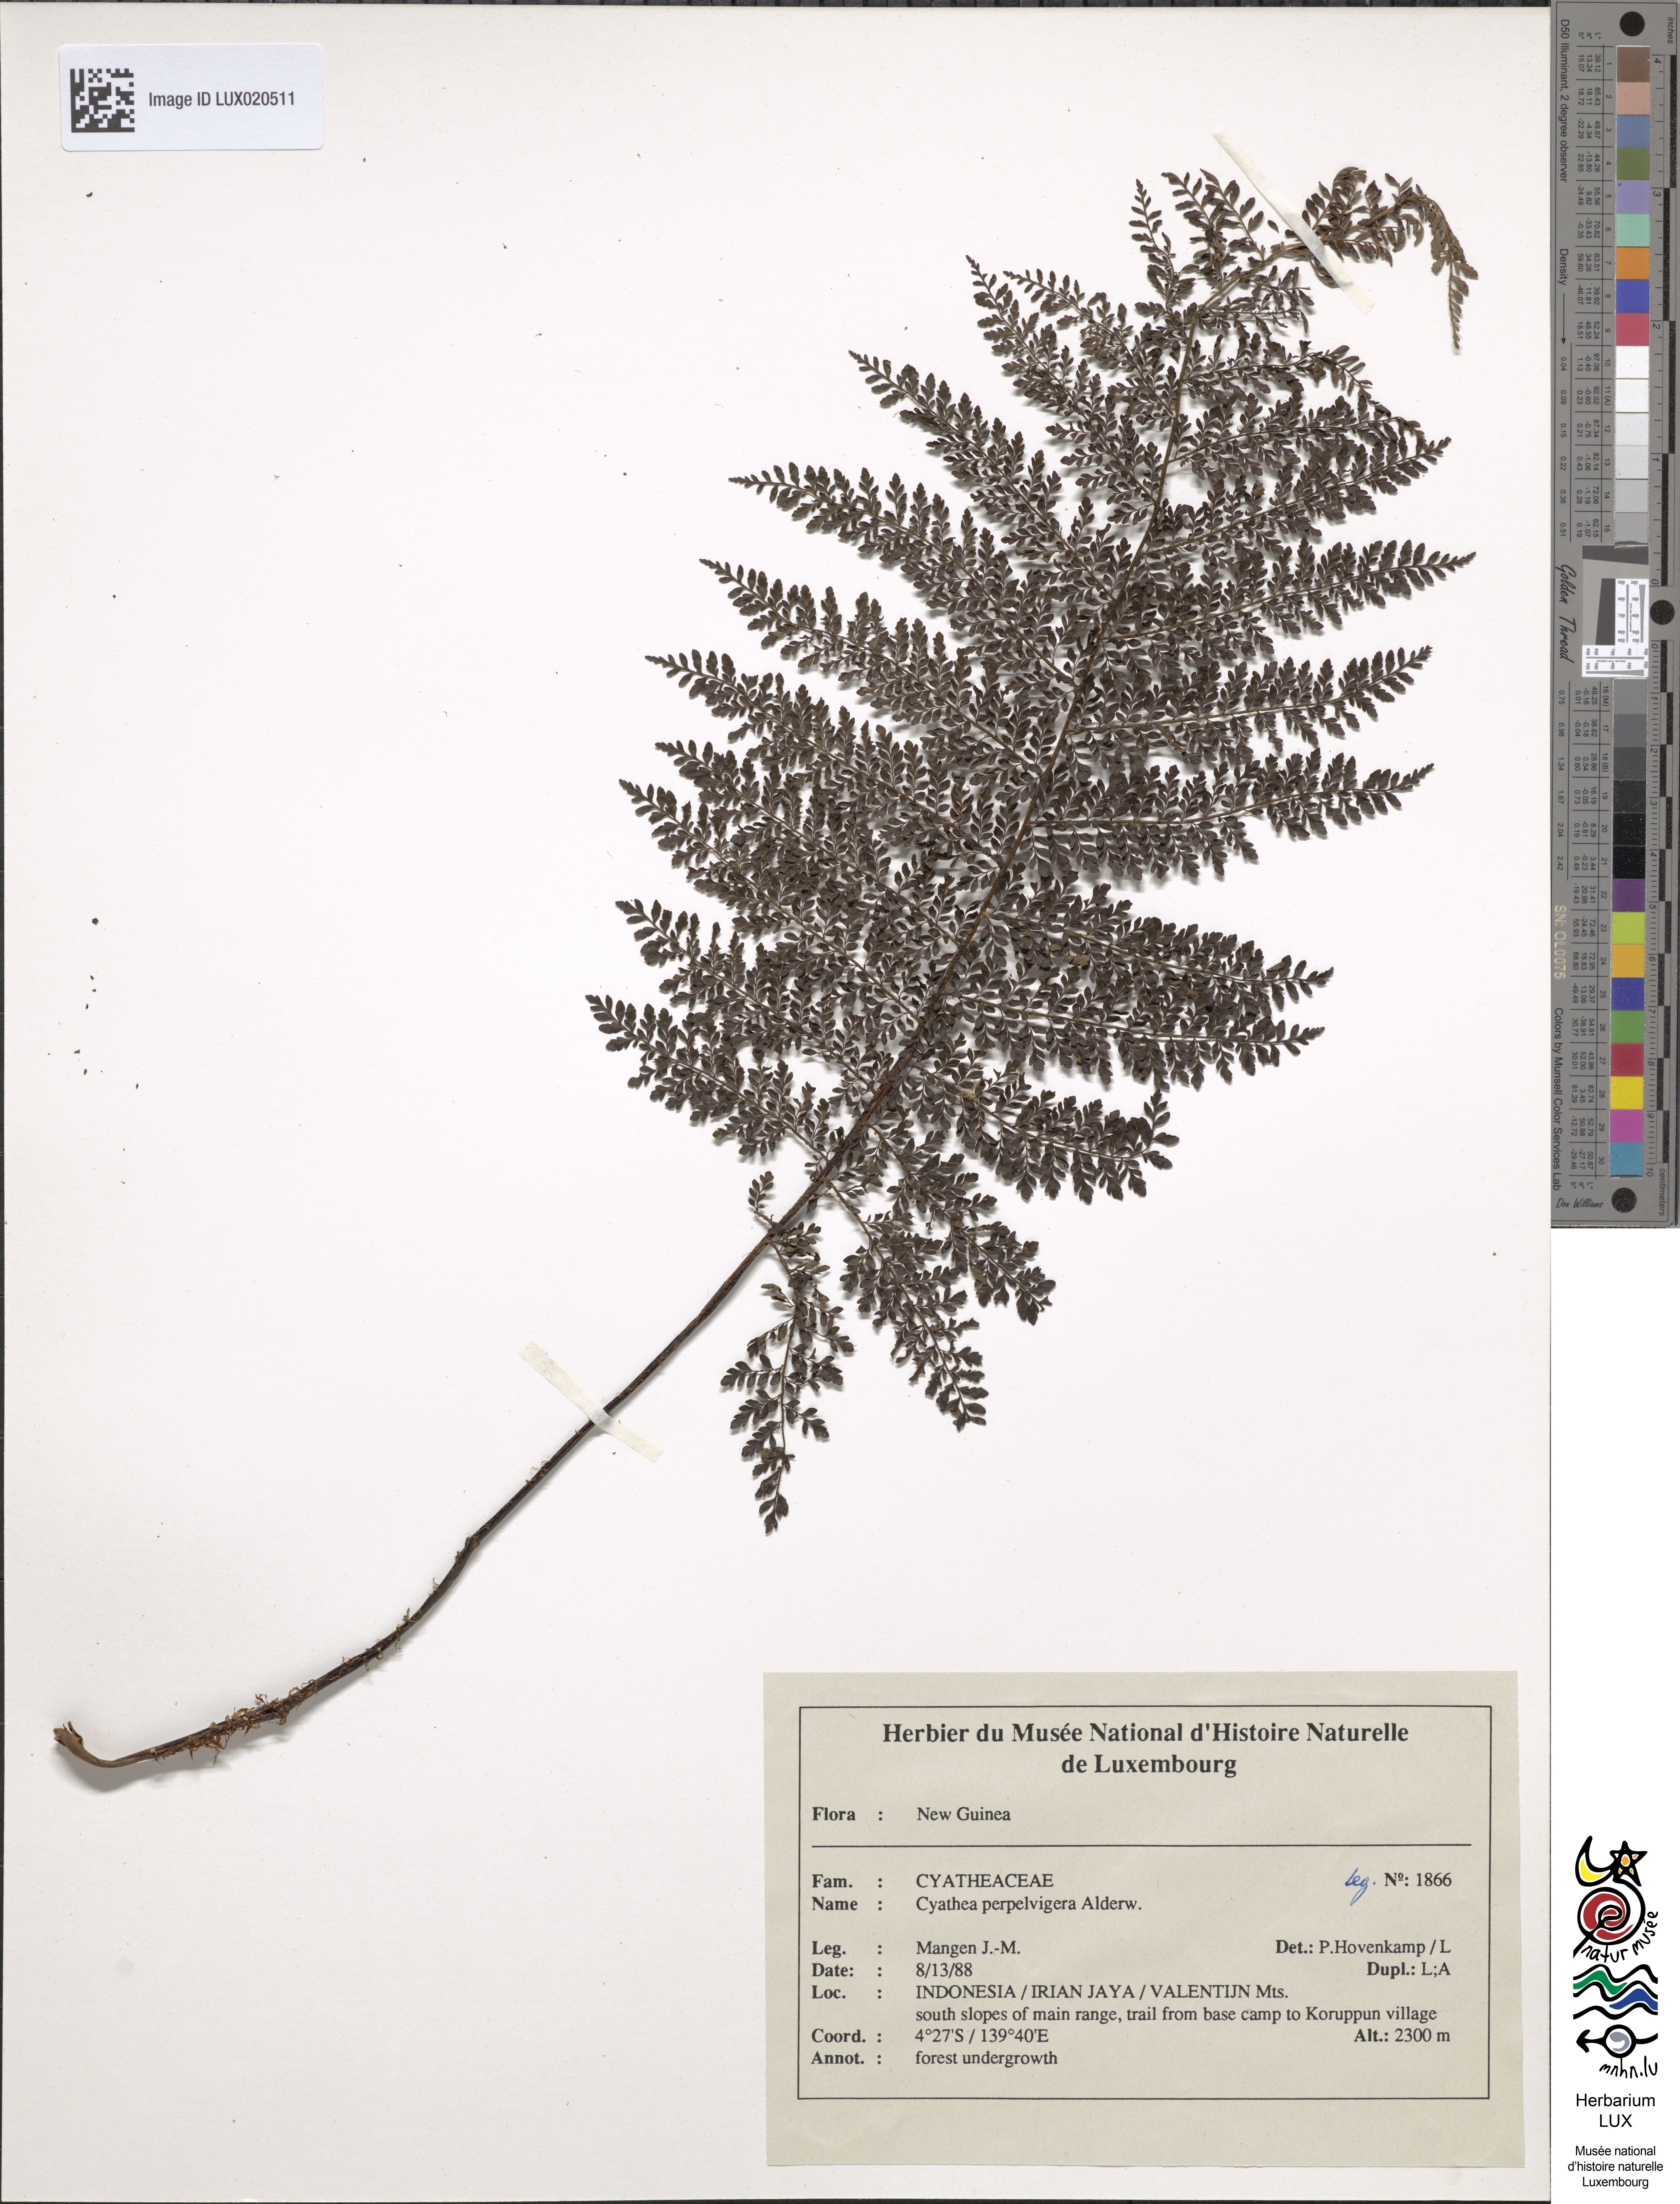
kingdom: Plantae
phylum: Tracheophyta
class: Polypodiopsida
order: Cyatheales
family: Cyatheaceae
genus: Alsophila
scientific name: Alsophila perpelvigera
